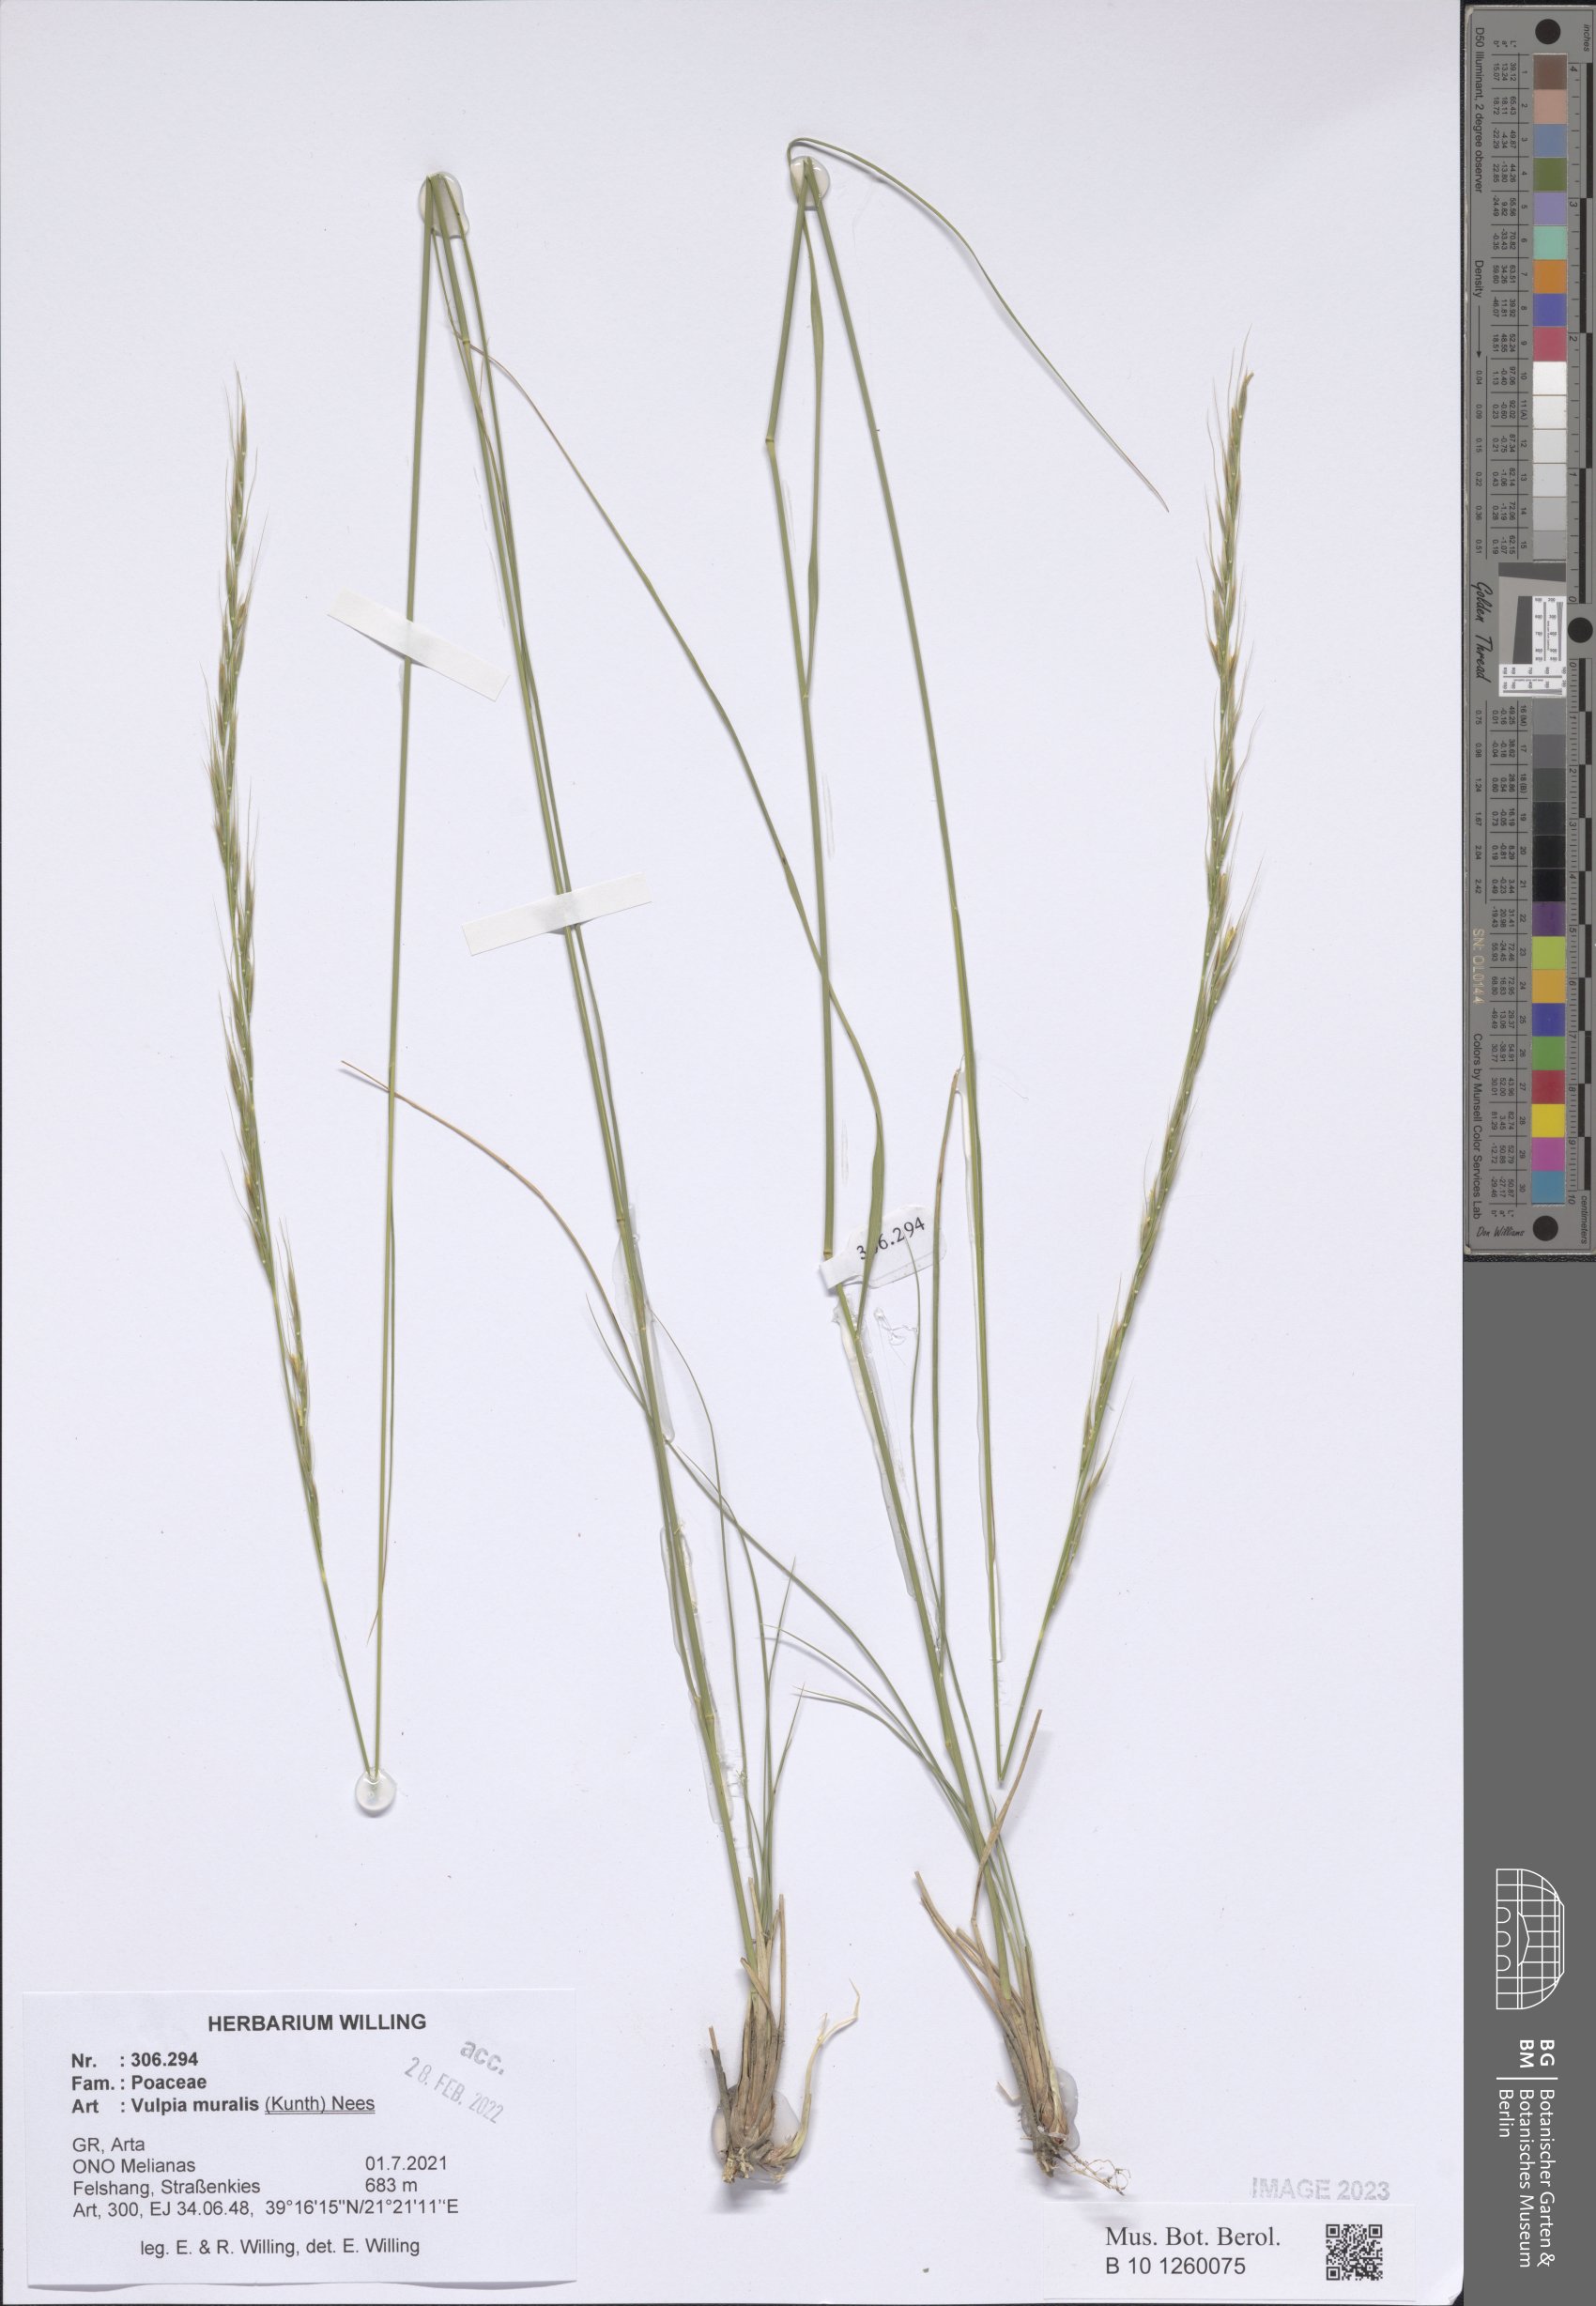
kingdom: Plantae
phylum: Tracheophyta
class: Liliopsida
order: Poales
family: Poaceae
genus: Festuca
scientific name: Festuca muralis
